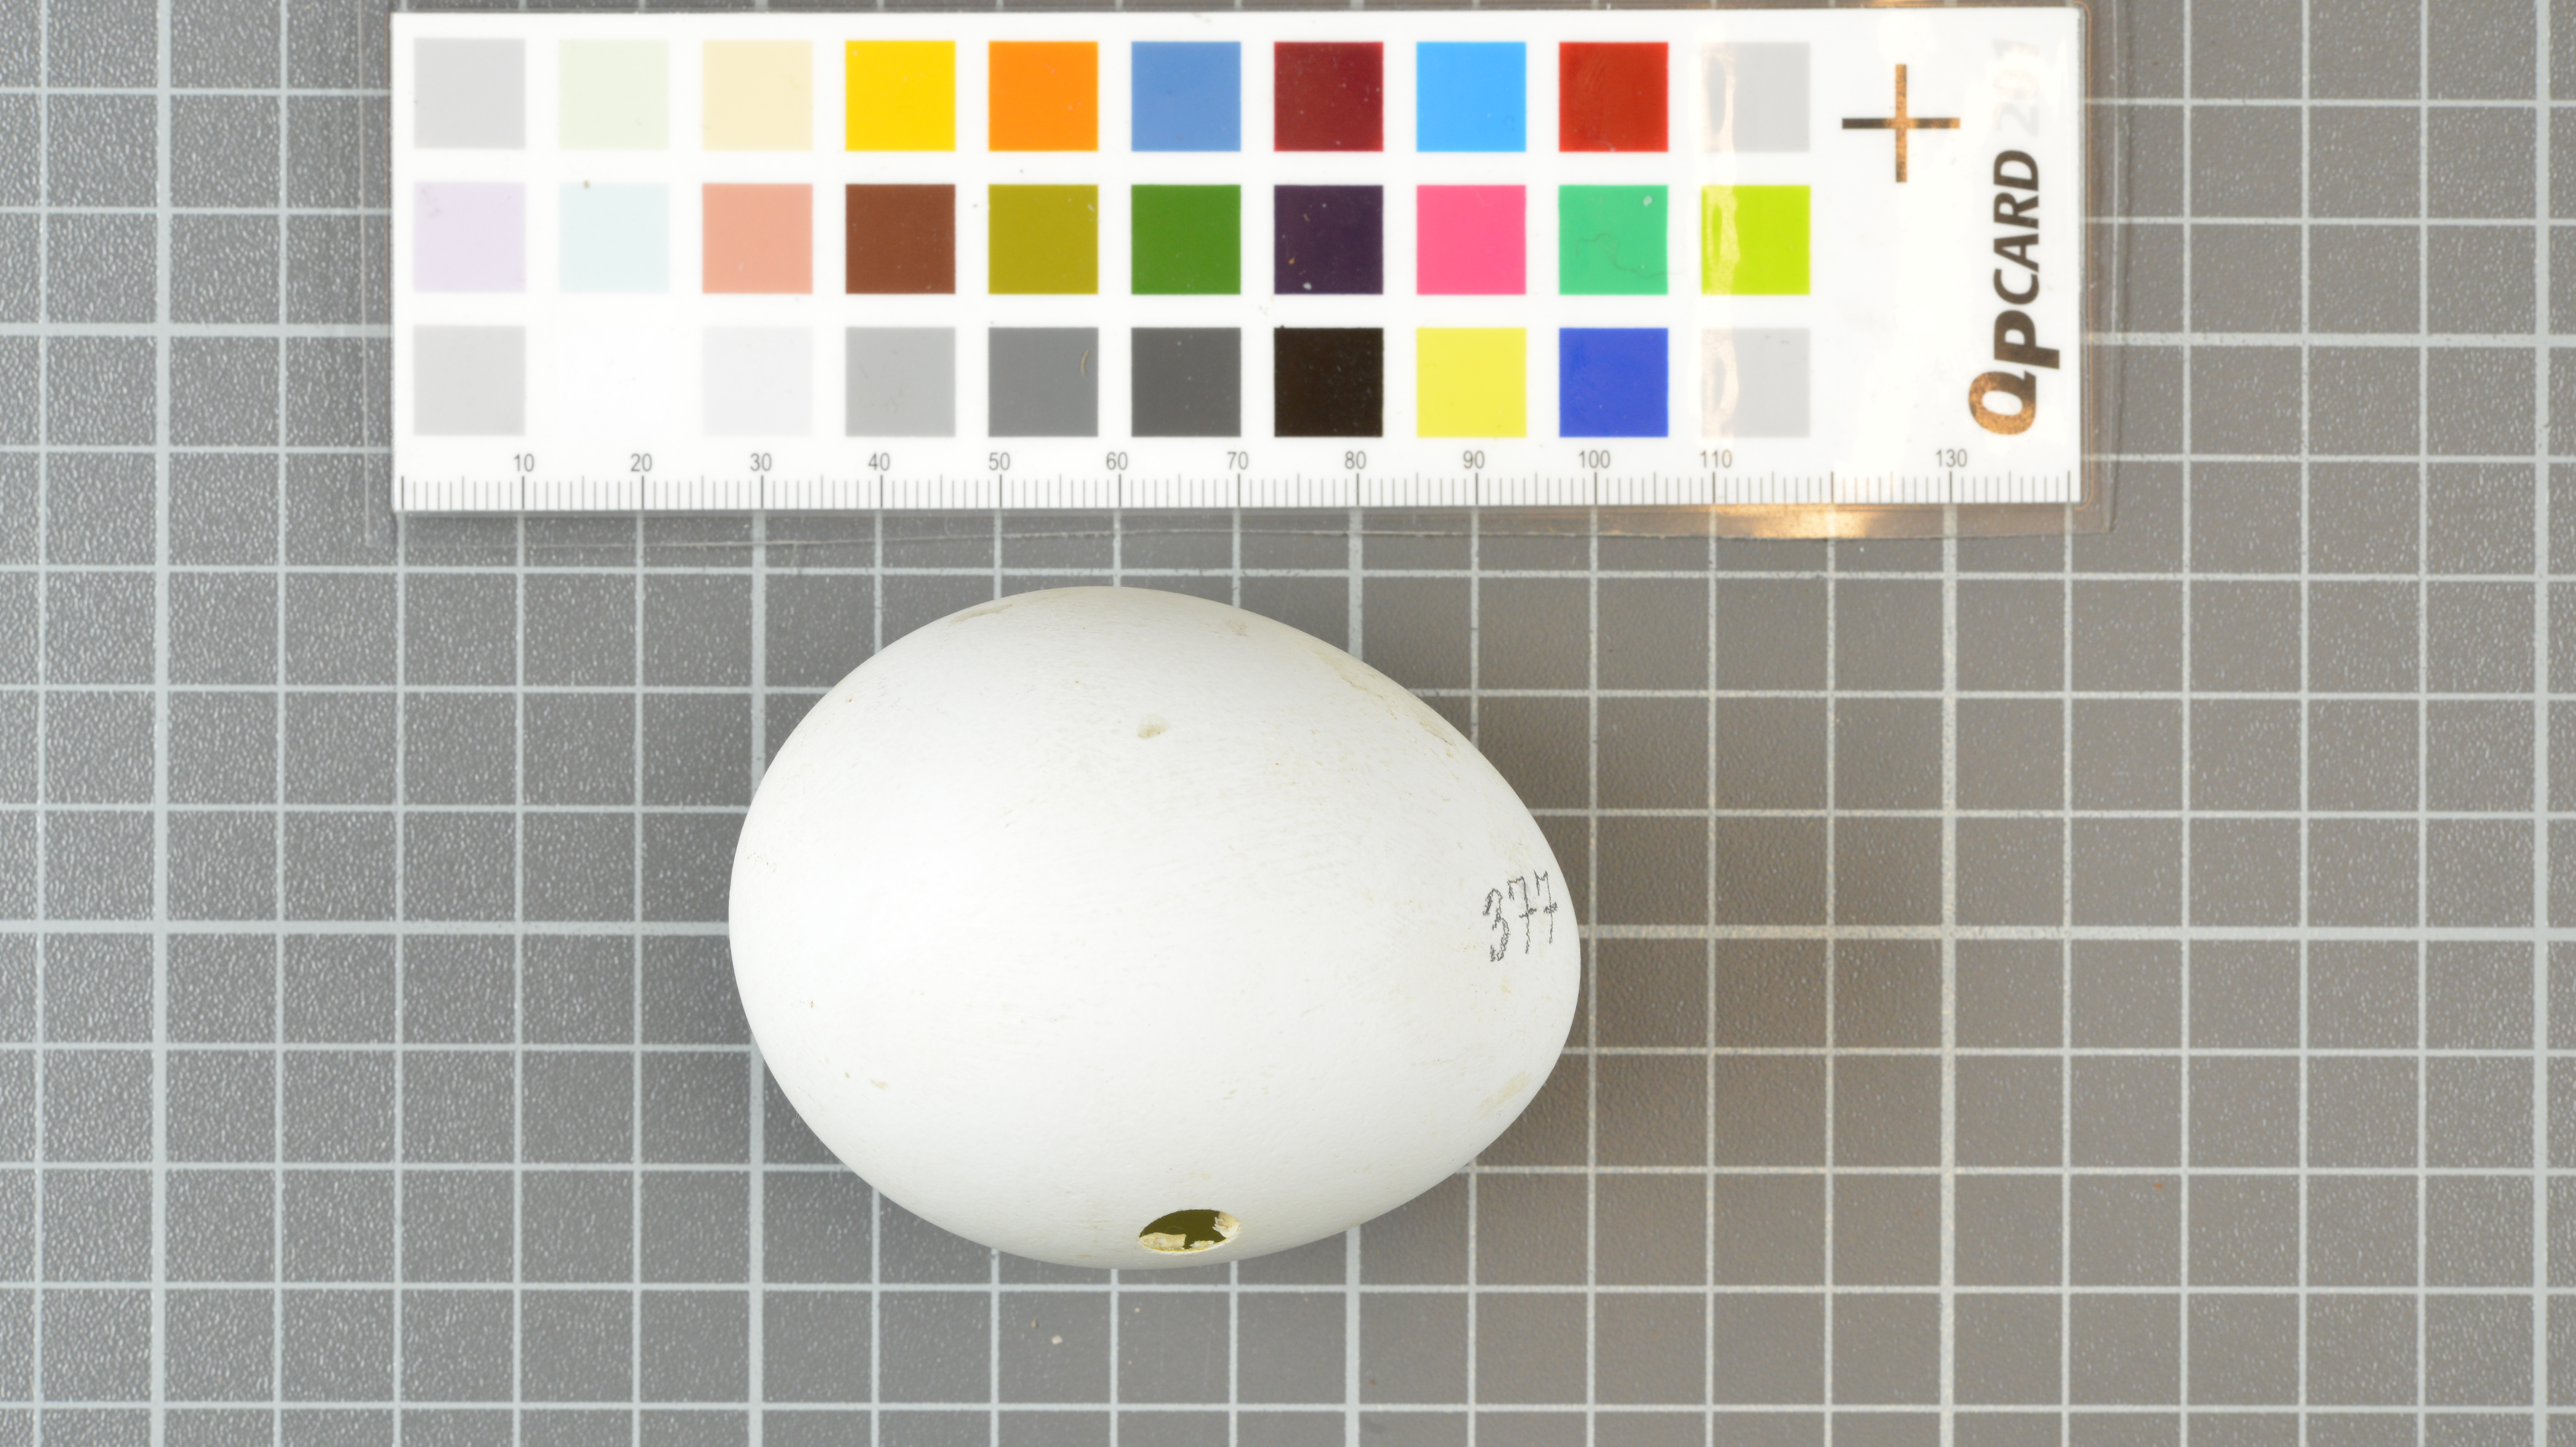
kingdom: Animalia
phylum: Chordata
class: Aves
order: Sphenisciformes
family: Spheniscidae
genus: Eudyptes
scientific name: Eudyptes moseleyi
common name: Northern rockhopper penguin
